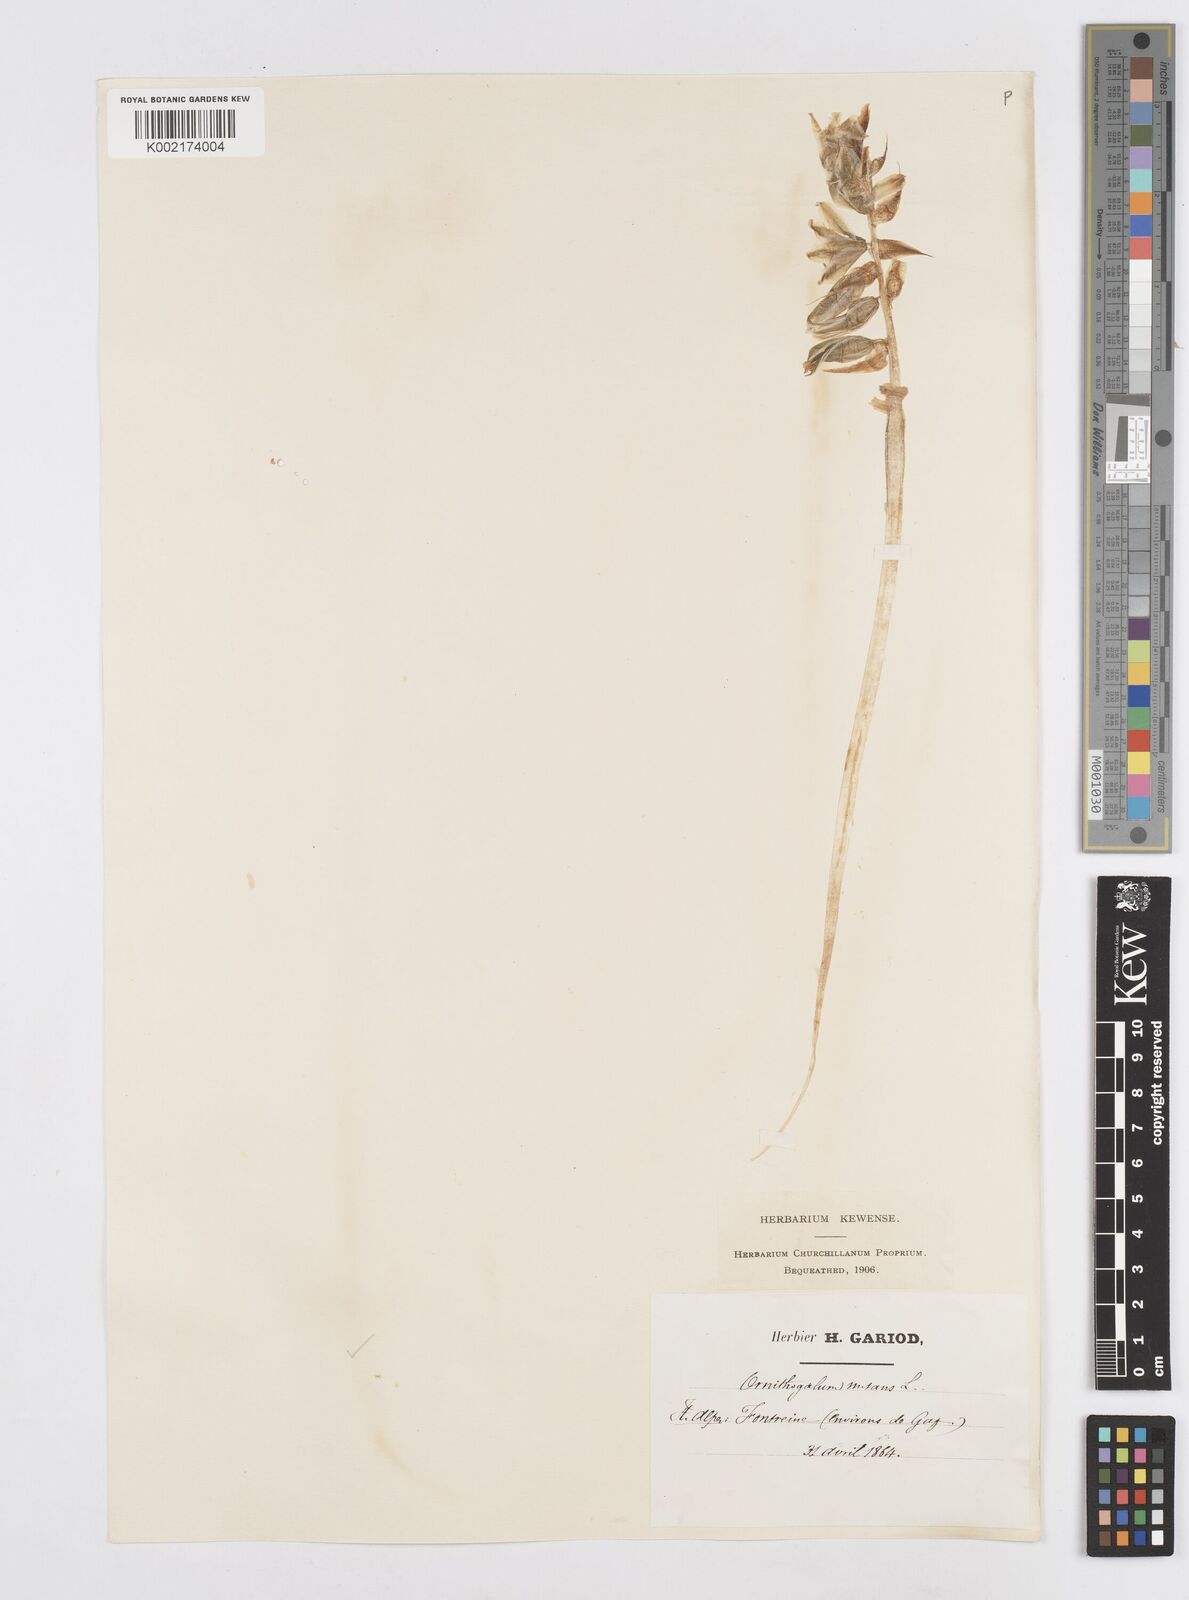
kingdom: Plantae
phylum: Tracheophyta
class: Liliopsida
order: Asparagales
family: Asparagaceae
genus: Ornithogalum
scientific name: Ornithogalum nutans
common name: Drooping star-of-bethlehem
